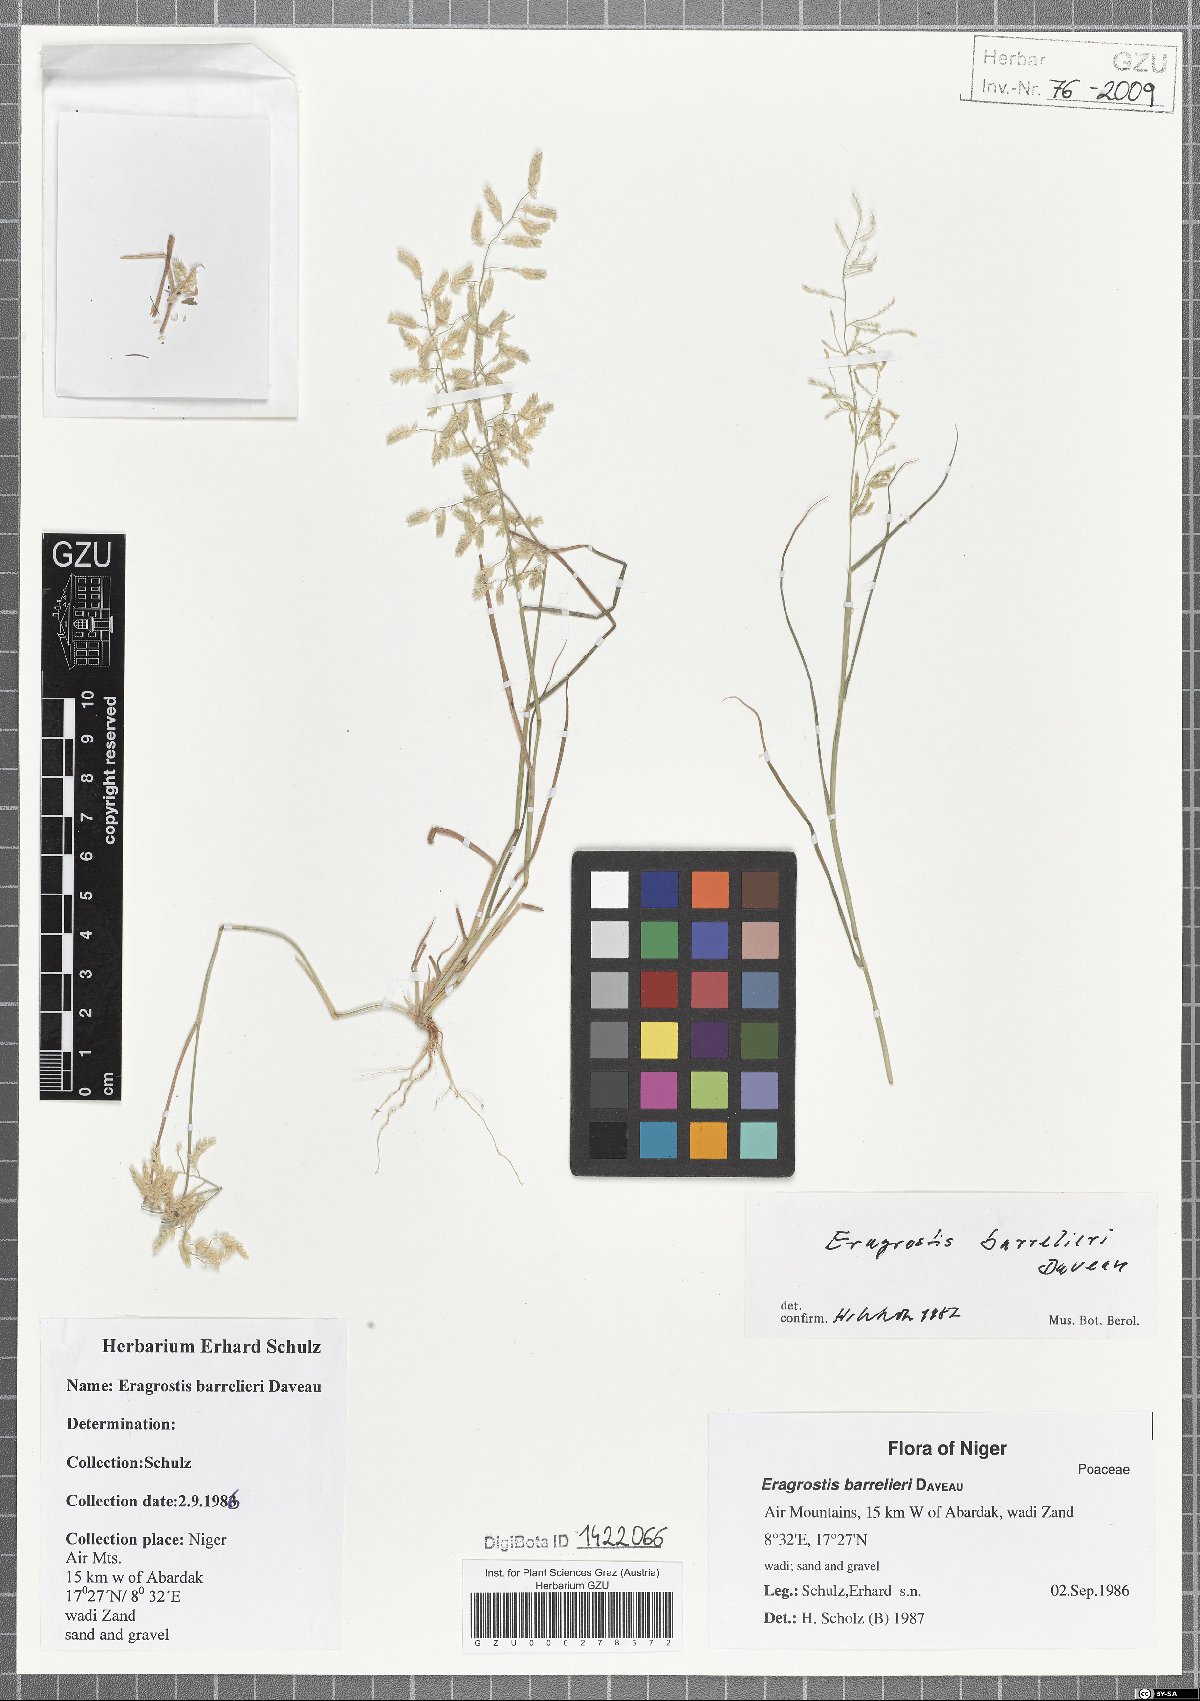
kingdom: Plantae
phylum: Tracheophyta
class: Liliopsida
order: Poales
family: Poaceae
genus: Eragrostis
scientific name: Eragrostis barrelieri
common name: Mediterranean lovegrass
